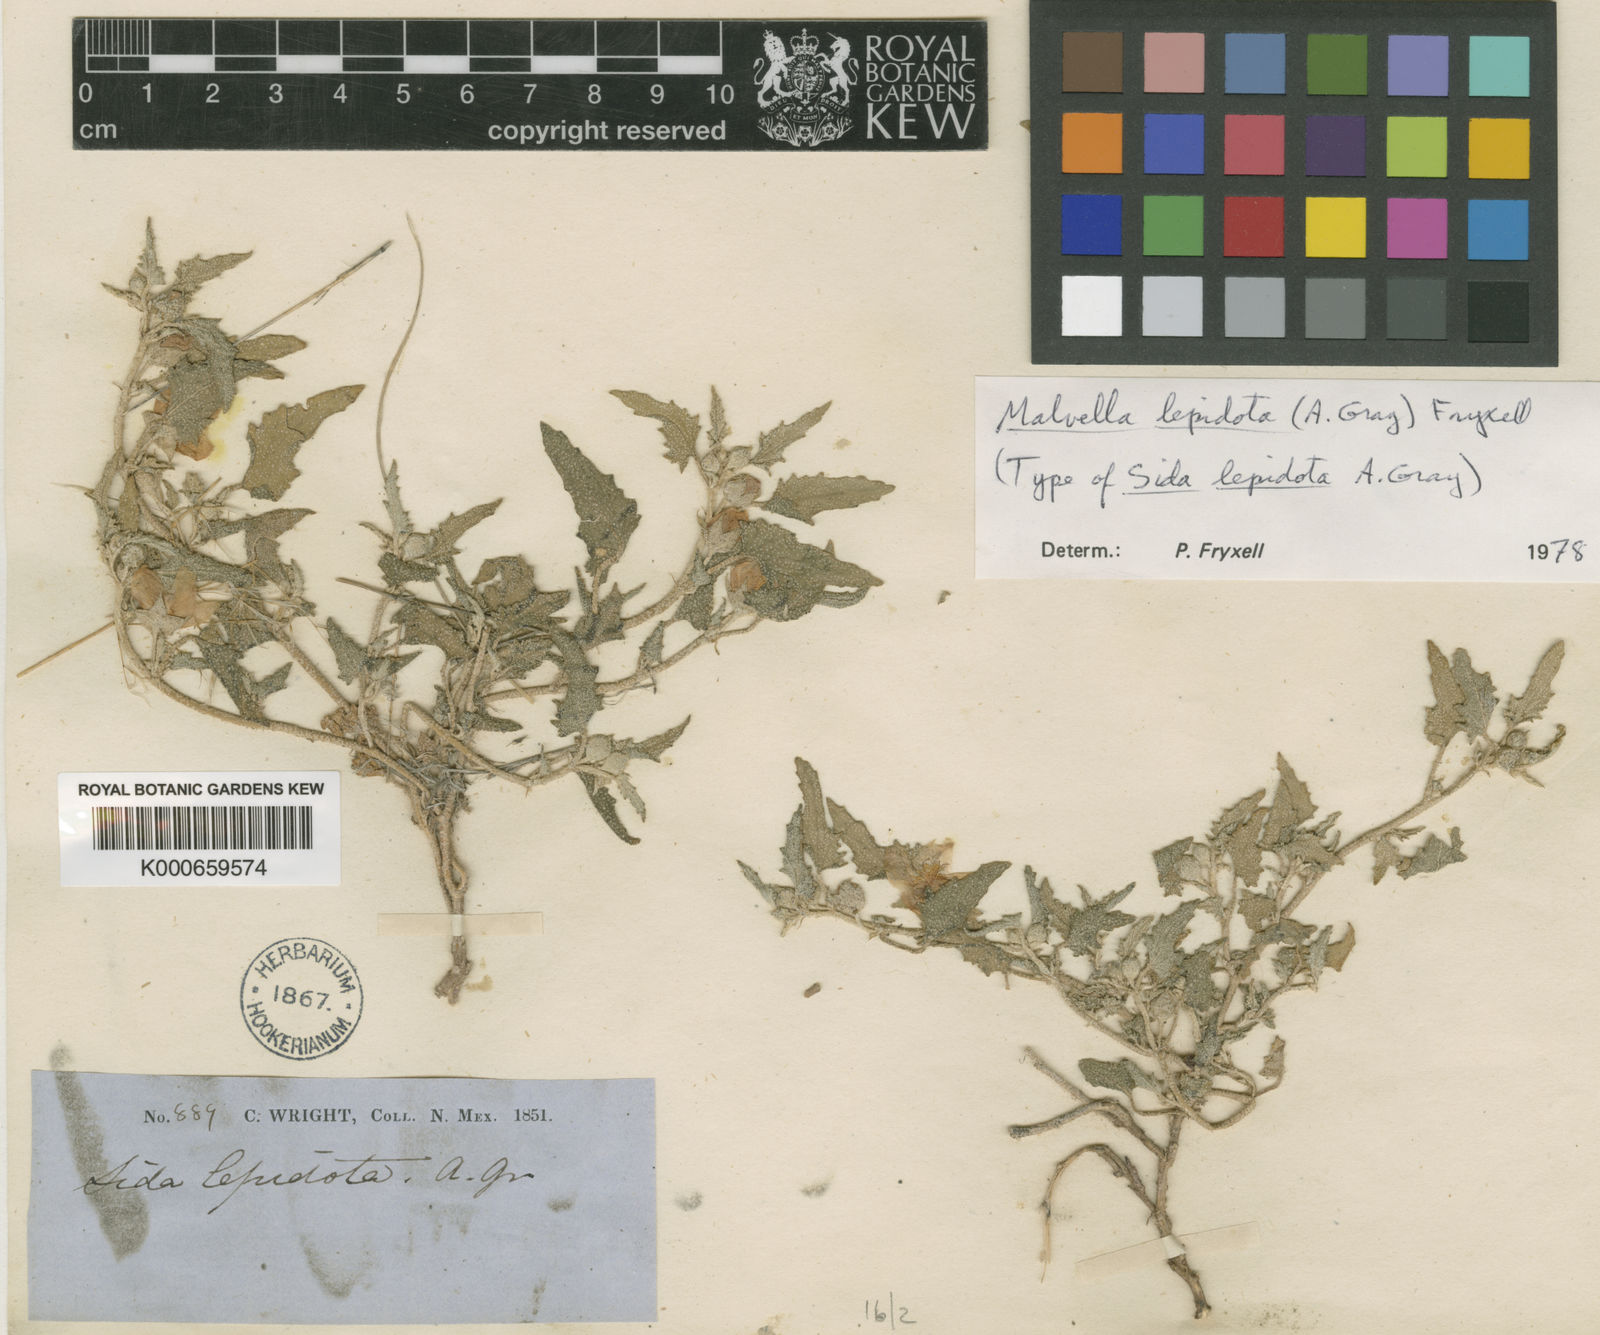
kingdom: Plantae
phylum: Tracheophyta
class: Magnoliopsida
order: Malvales
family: Malvaceae
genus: Malvella
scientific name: Malvella lepidota
